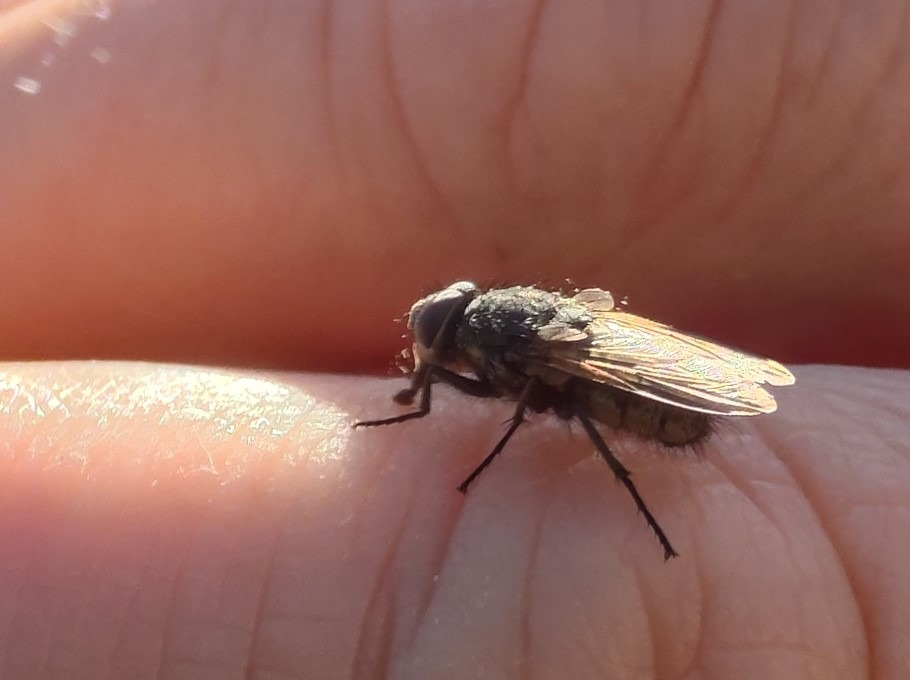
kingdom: Animalia
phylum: Arthropoda
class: Insecta
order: Diptera
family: Polleniidae
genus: Pollenia
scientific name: Pollenia pediculata
